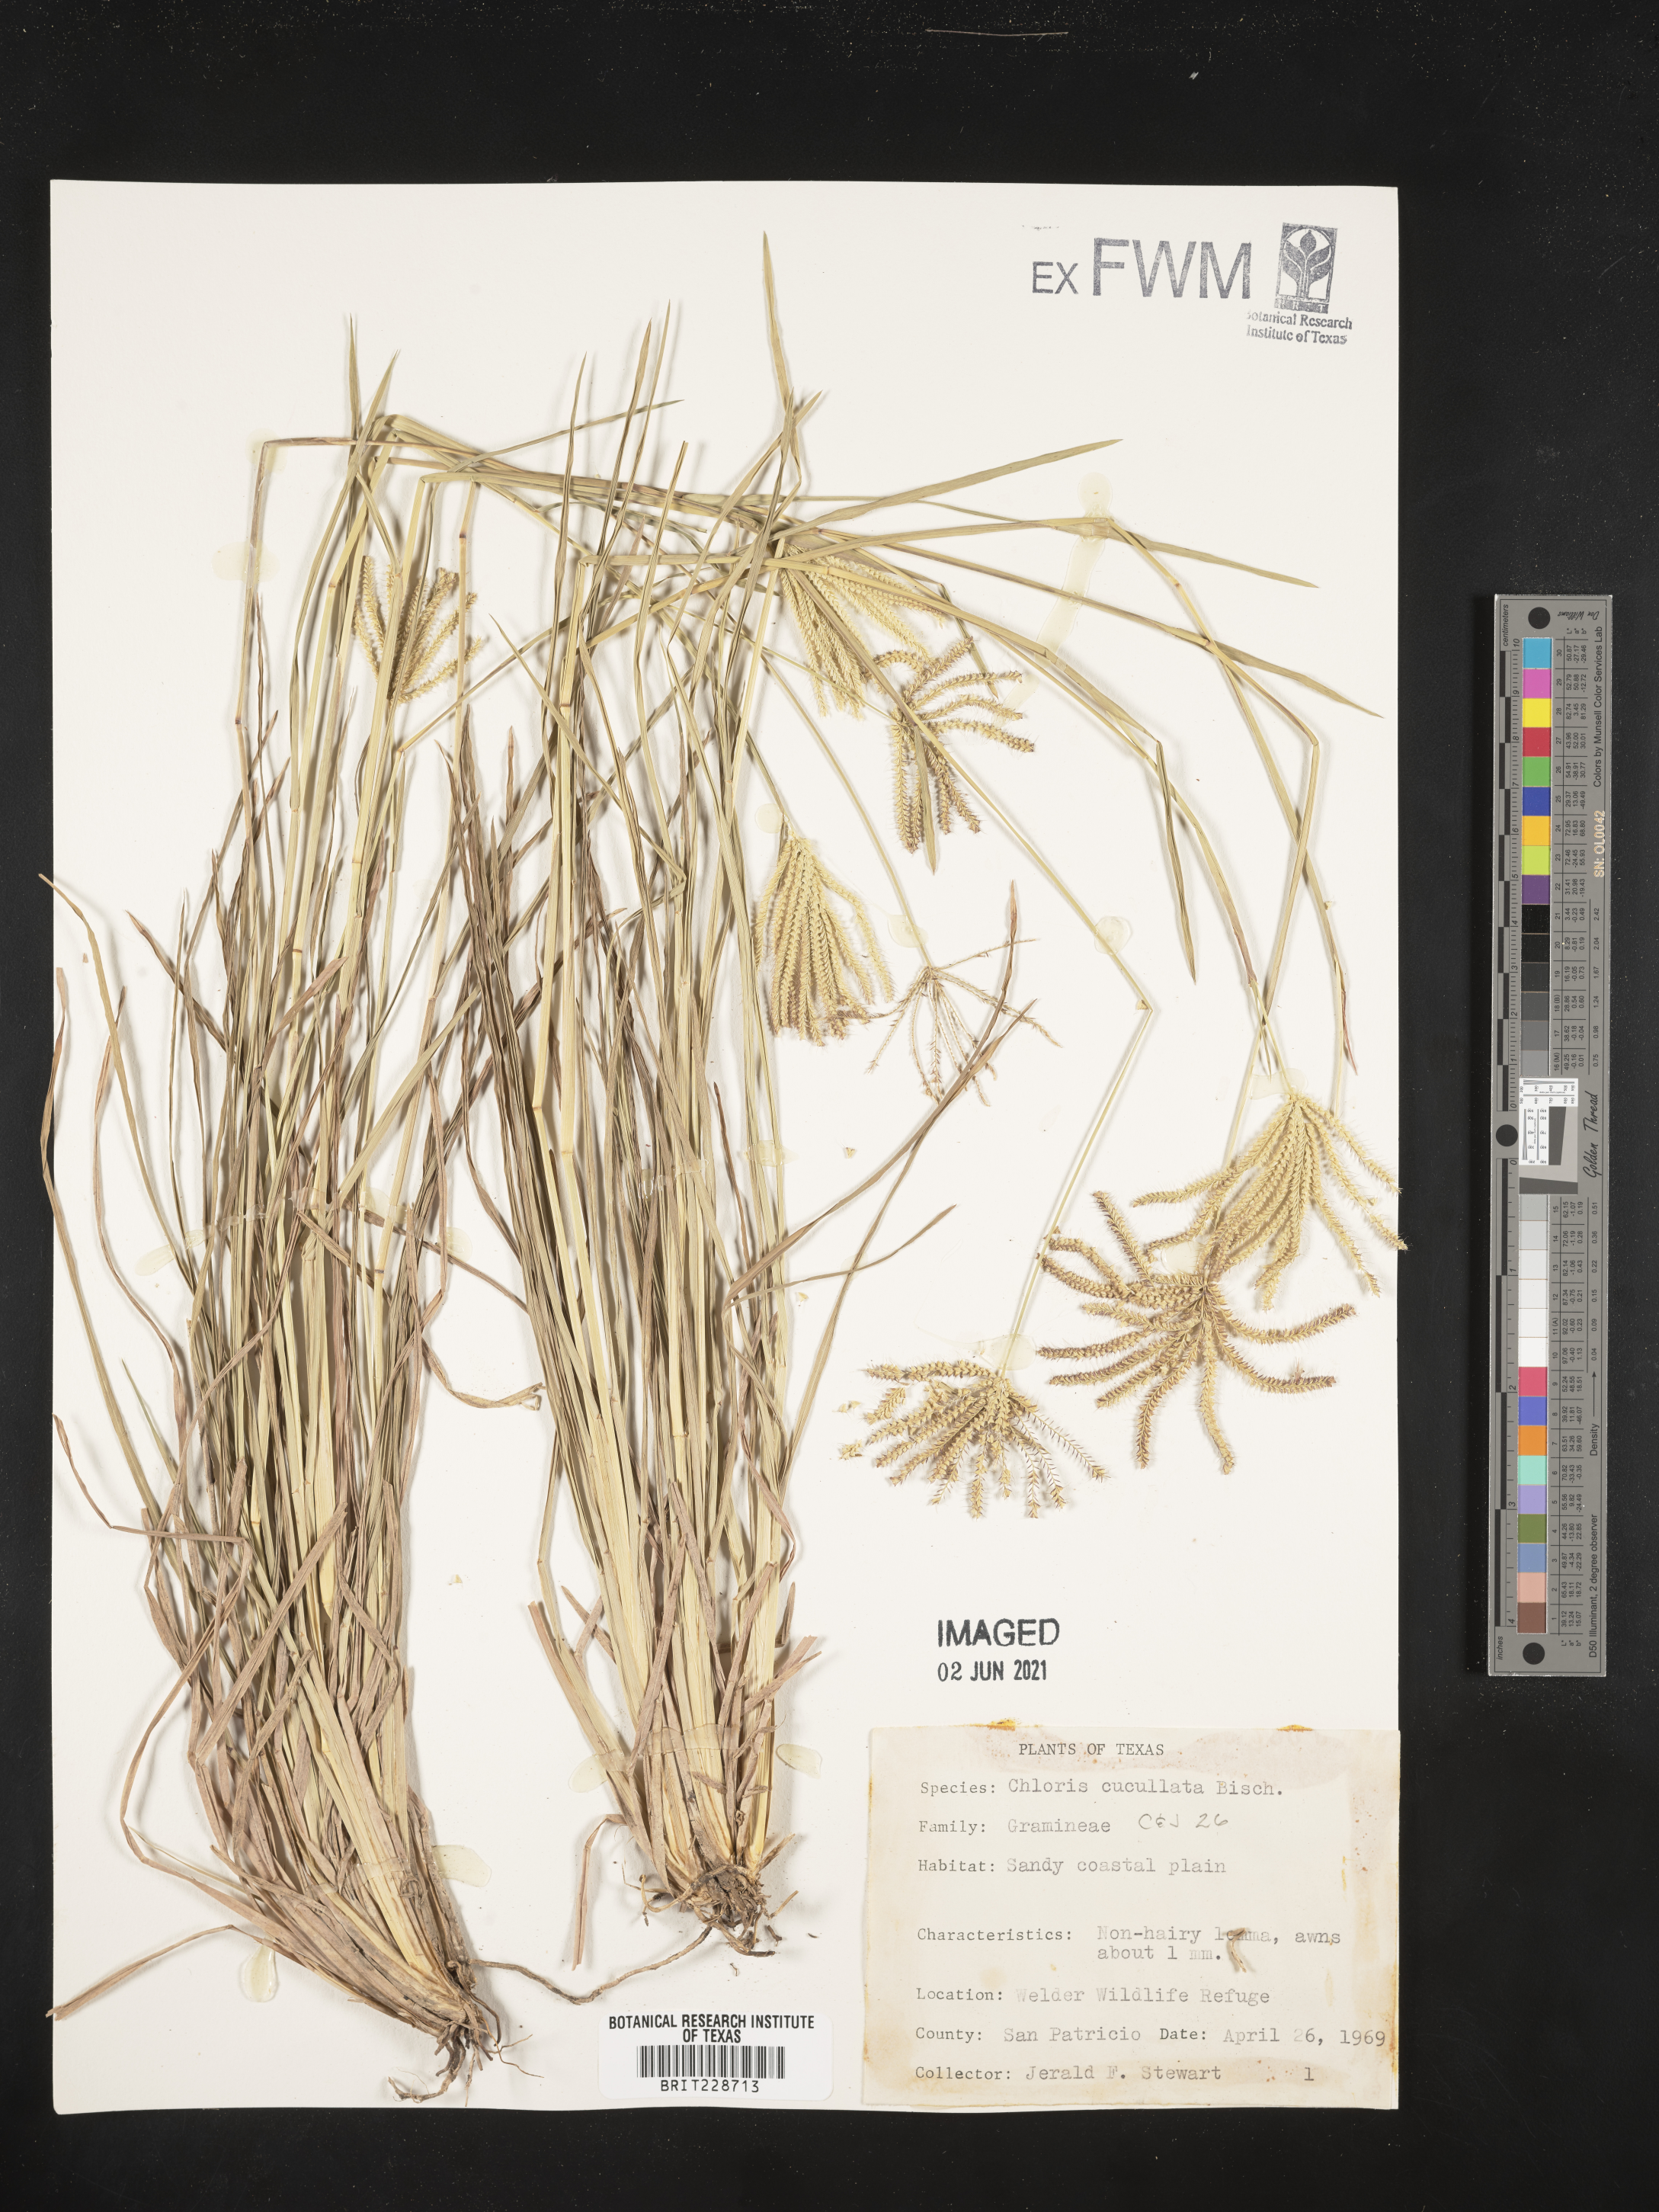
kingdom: Plantae
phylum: Tracheophyta
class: Liliopsida
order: Poales
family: Poaceae
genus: Chloris
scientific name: Chloris cucullata
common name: Hooded windmill grass
